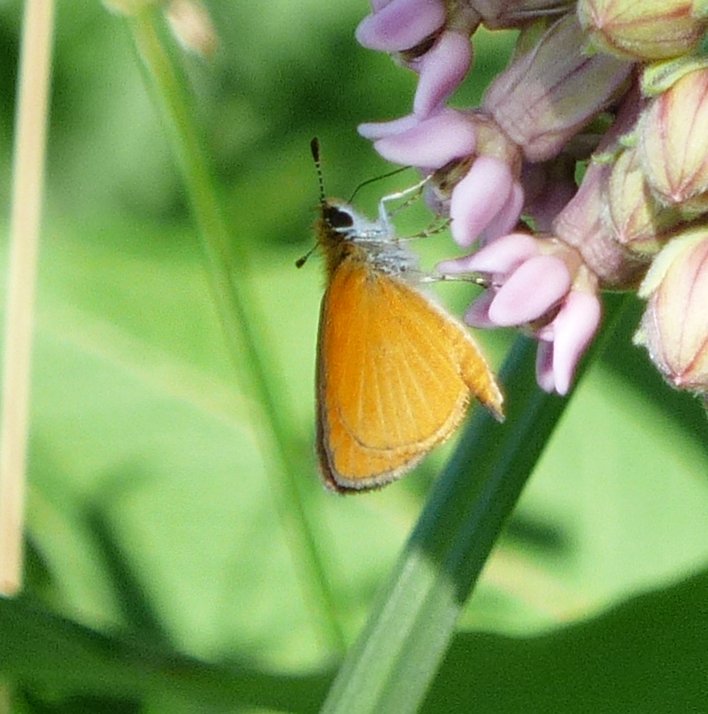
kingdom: Animalia
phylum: Arthropoda
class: Insecta
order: Lepidoptera
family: Hesperiidae
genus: Ancyloxypha
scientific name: Ancyloxypha numitor
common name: Least Skipper
